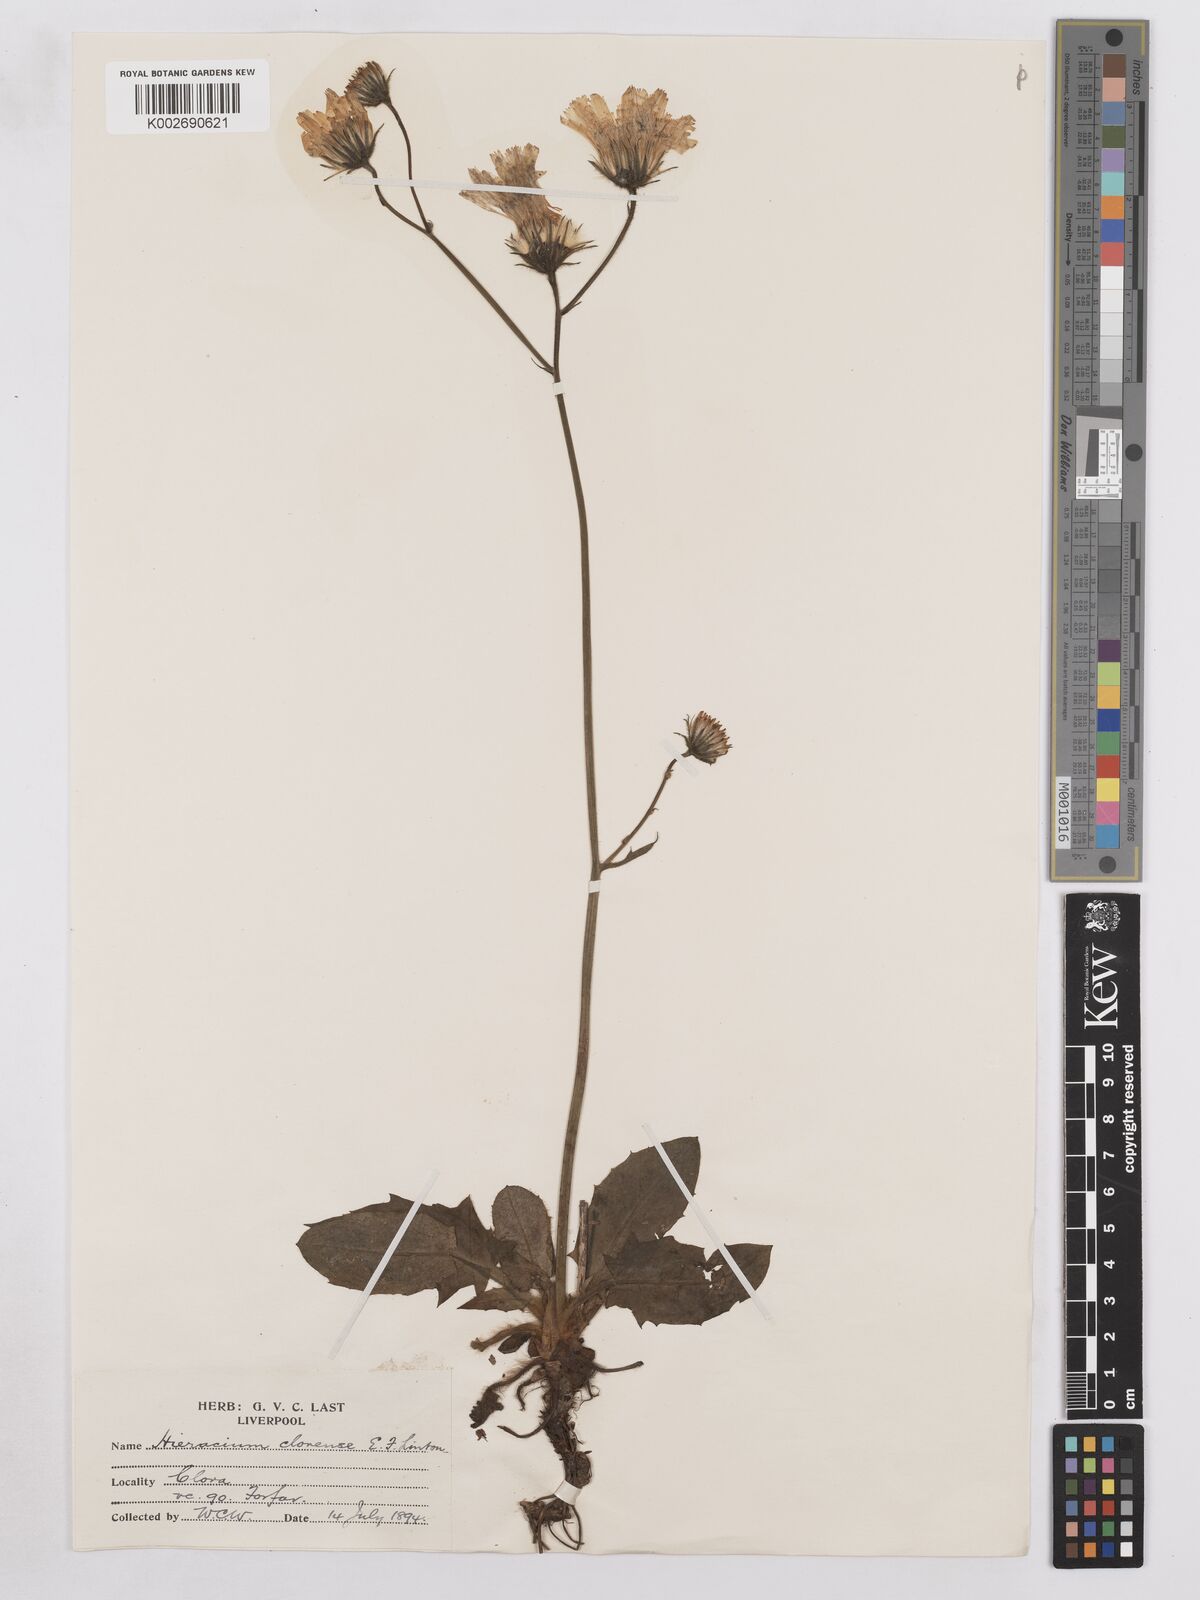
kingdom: Plantae
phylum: Tracheophyta
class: Magnoliopsida
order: Asterales
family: Asteraceae
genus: Hieracium
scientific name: Hieracium clovense
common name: Clova hawkweed
